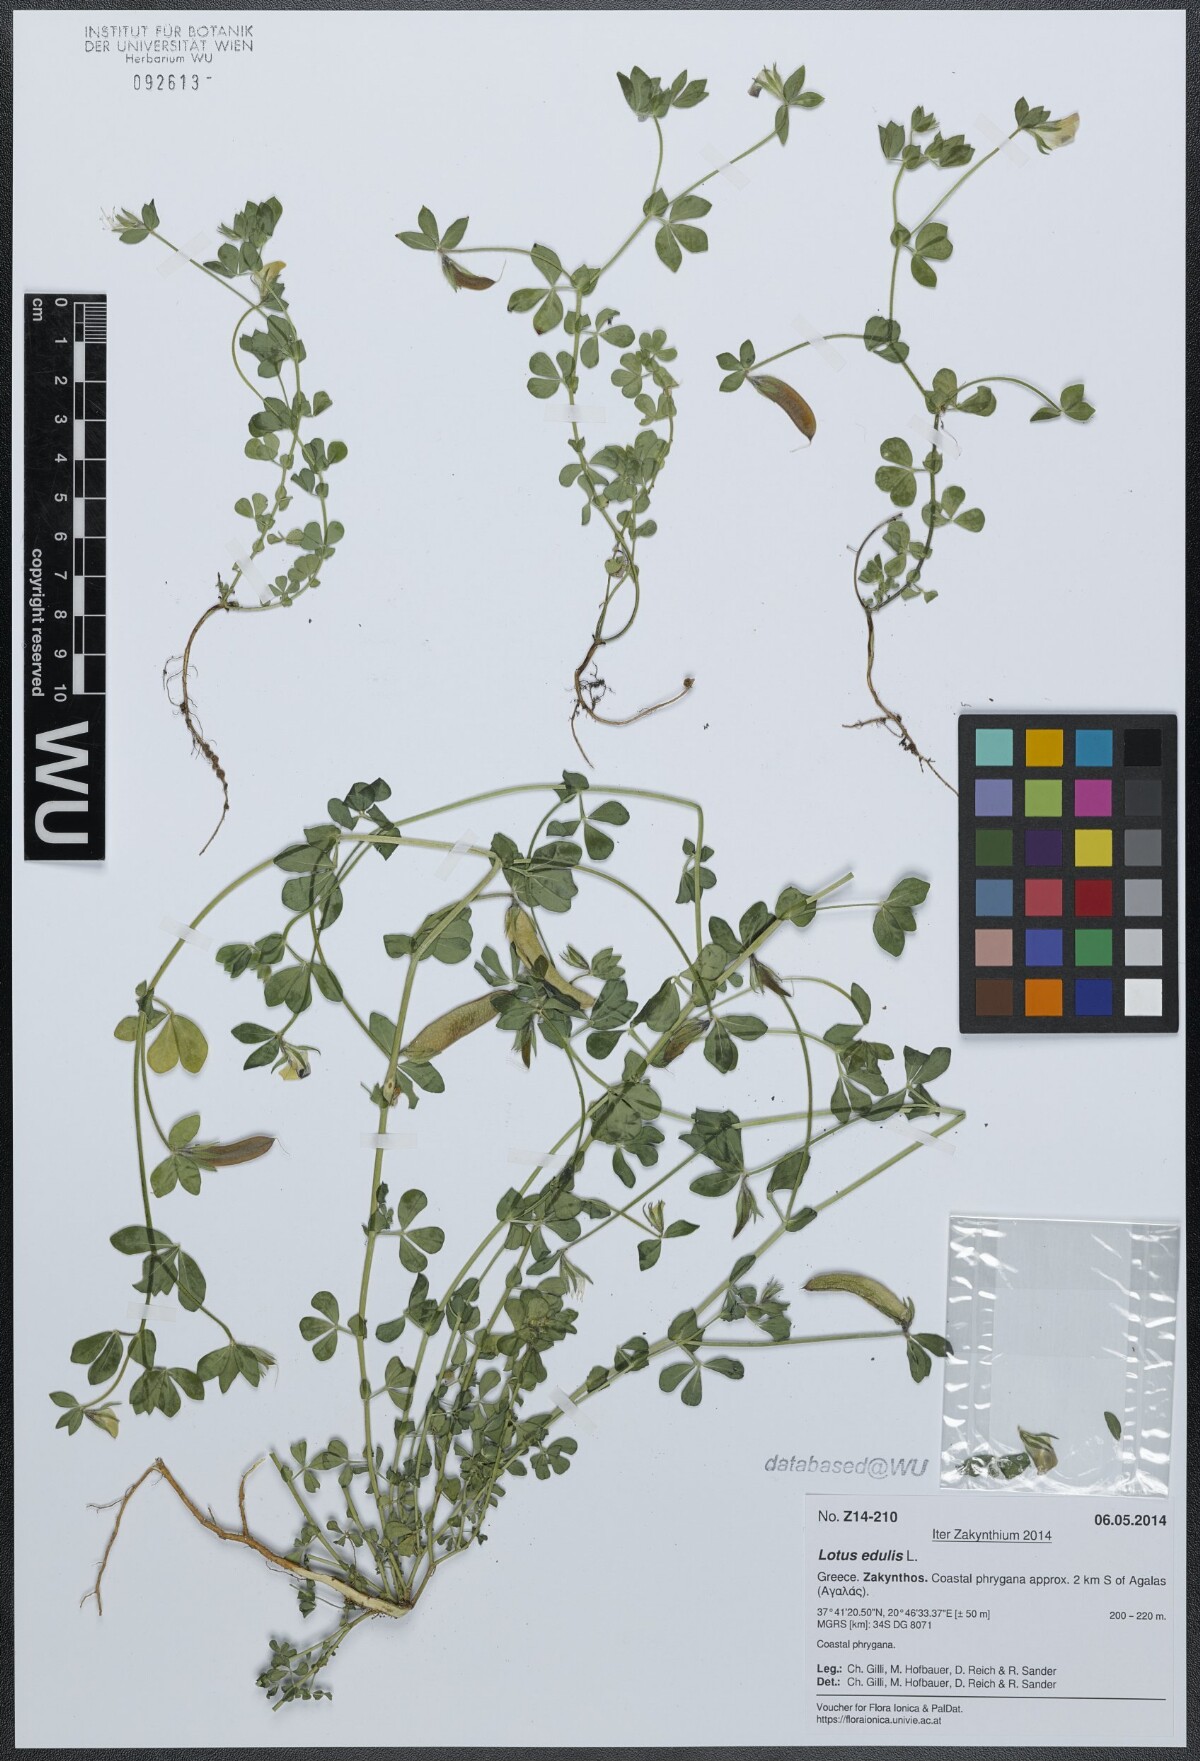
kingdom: Plantae
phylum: Tracheophyta
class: Magnoliopsida
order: Fabales
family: Fabaceae
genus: Lotus
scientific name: Lotus edulis
